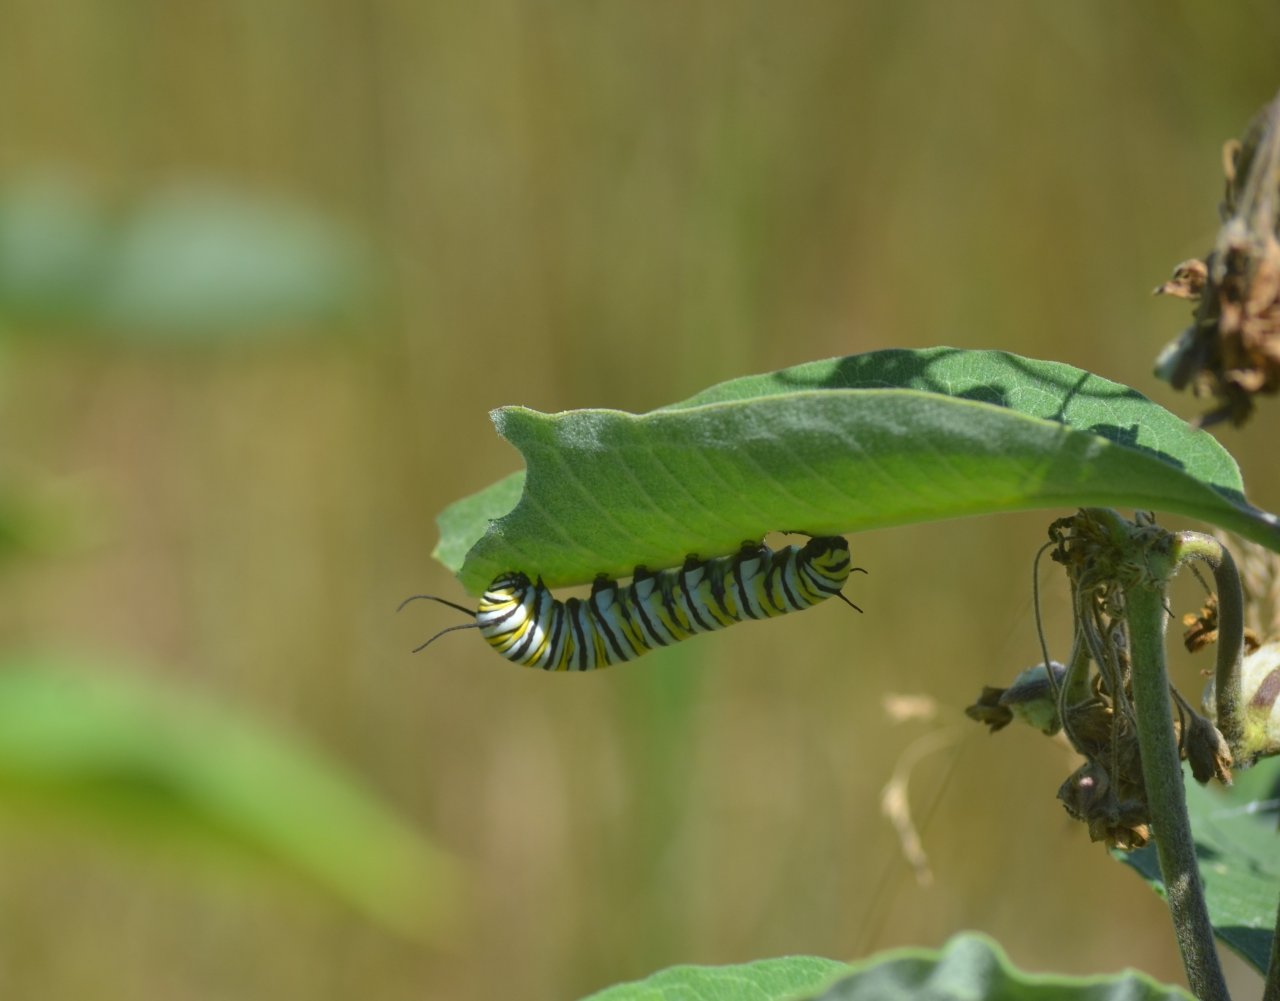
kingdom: Animalia
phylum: Arthropoda
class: Insecta
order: Lepidoptera
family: Nymphalidae
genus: Danaus
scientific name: Danaus plexippus
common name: Monarch
